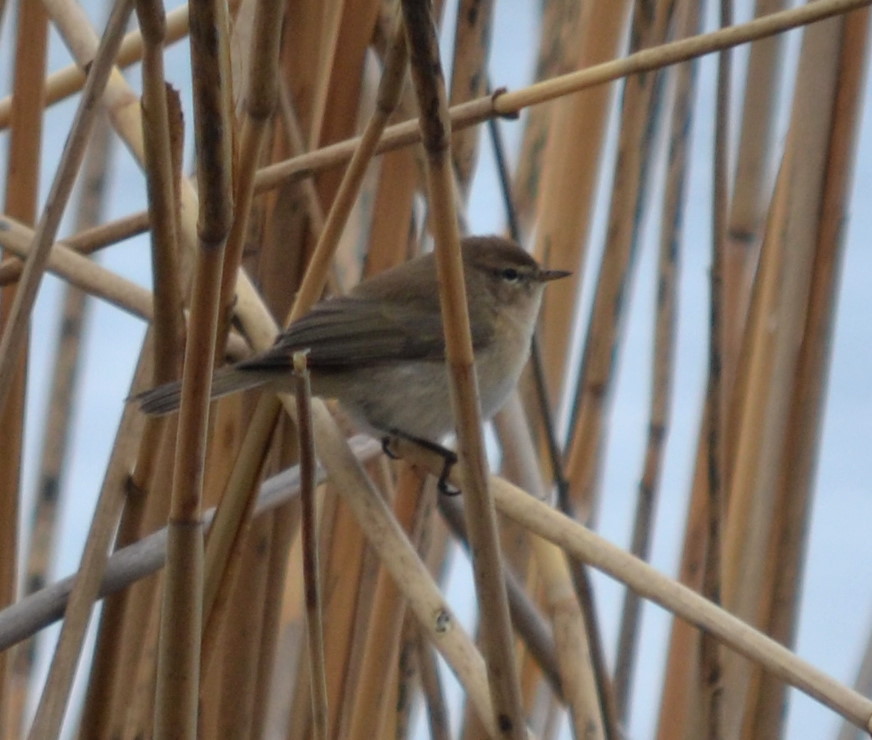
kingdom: Animalia
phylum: Chordata
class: Aves
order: Passeriformes
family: Troglodytidae
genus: Troglodytes
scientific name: Troglodytes troglodytes
